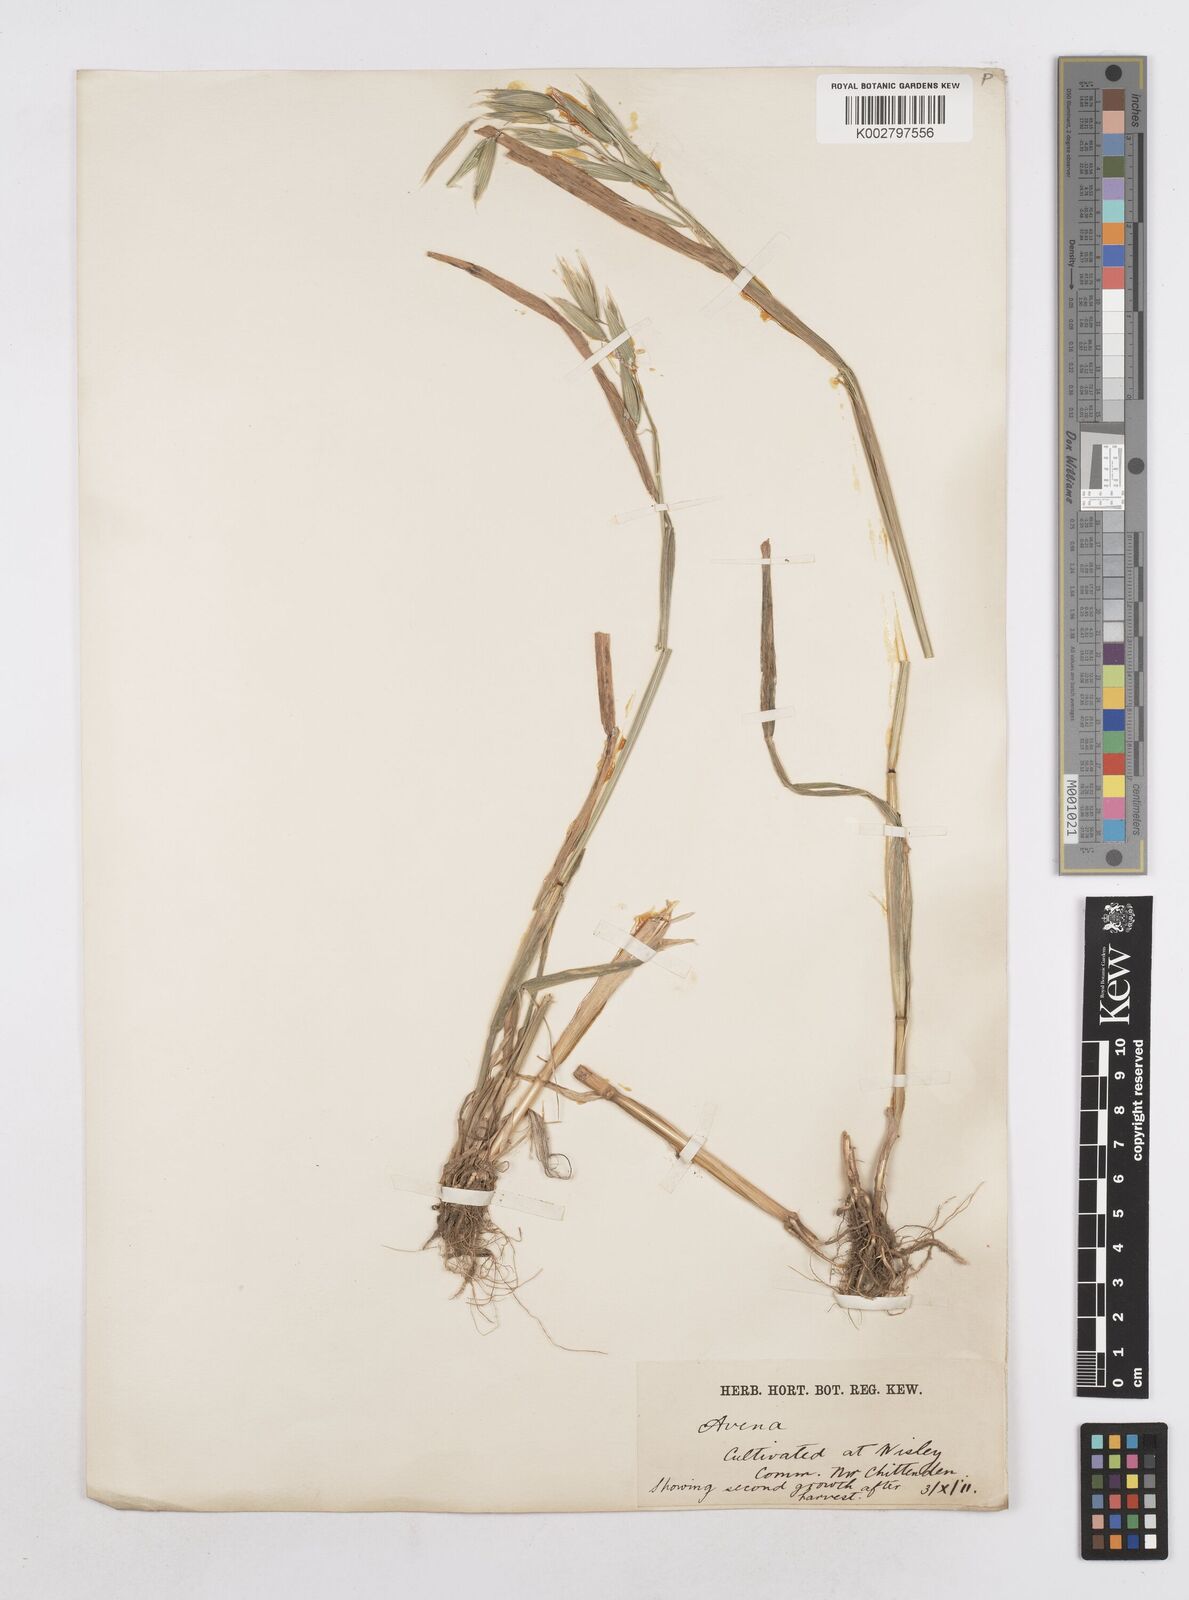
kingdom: Plantae
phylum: Tracheophyta
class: Liliopsida
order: Poales
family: Poaceae
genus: Avena
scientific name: Avena
